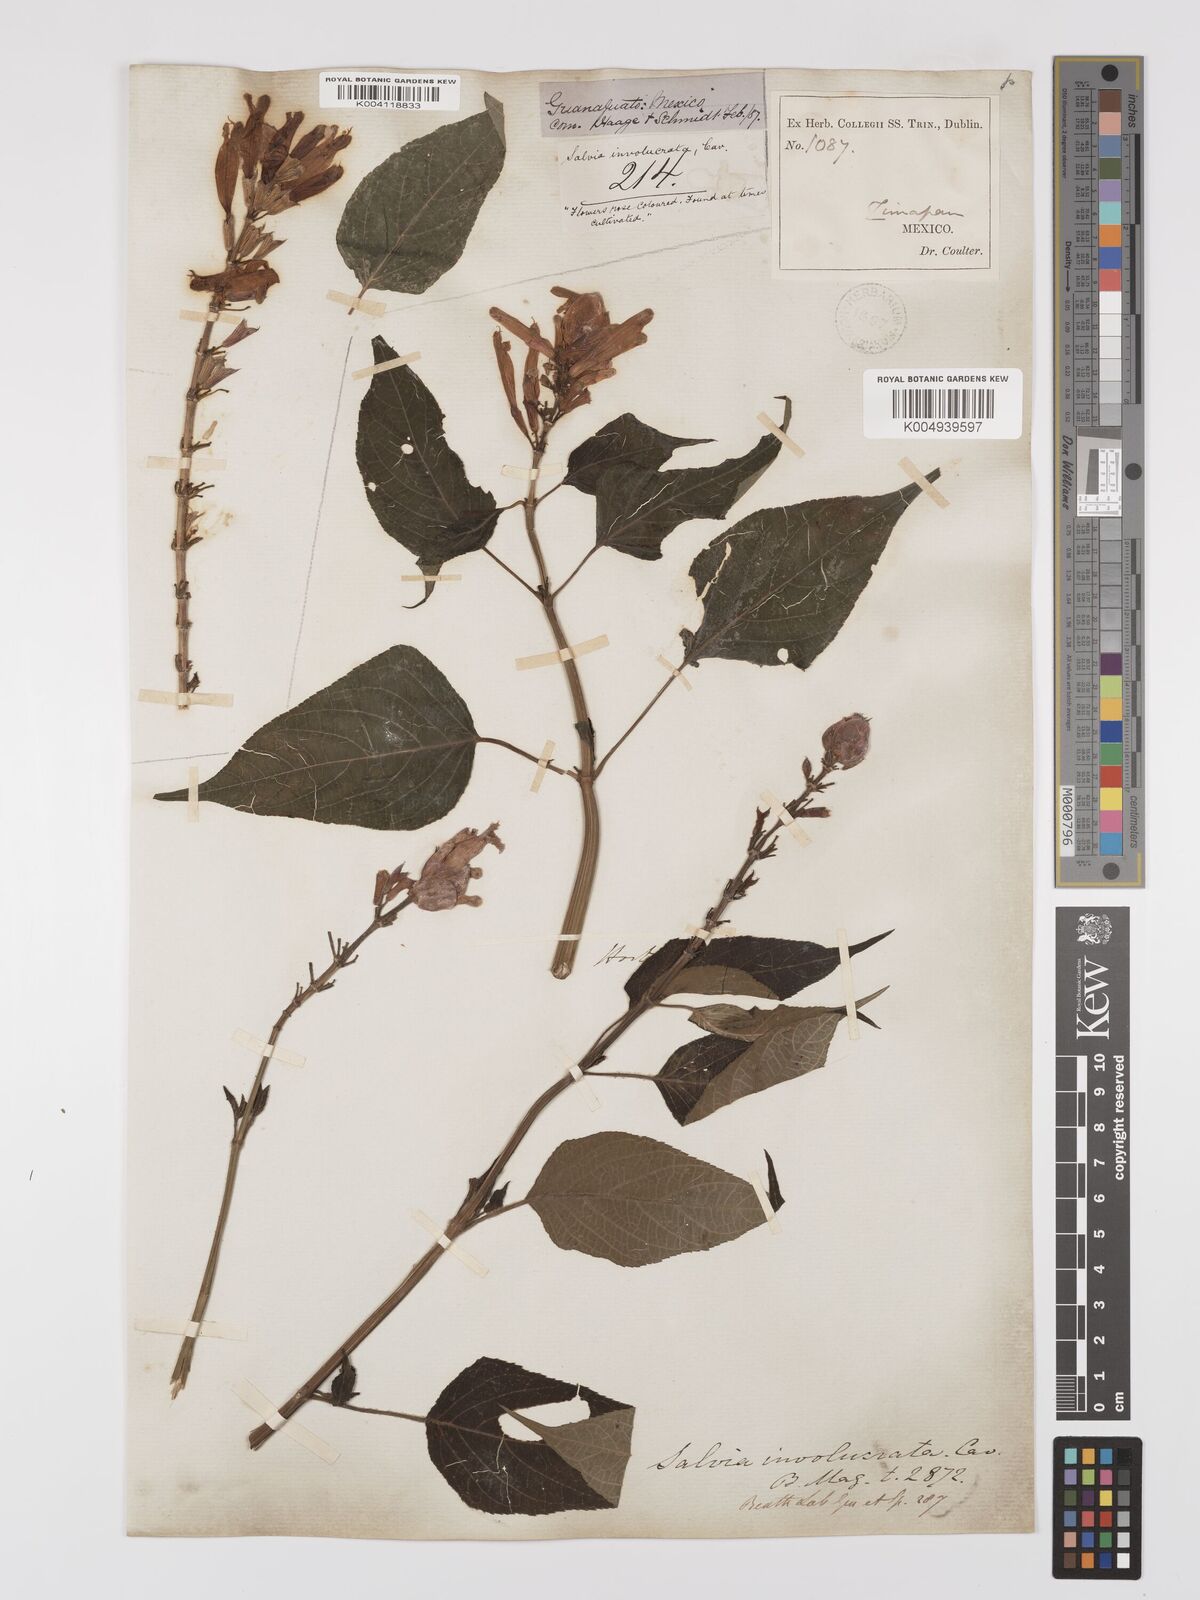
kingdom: Plantae
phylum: Tracheophyta
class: Magnoliopsida
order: Lamiales
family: Lamiaceae
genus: Salvia
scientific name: Salvia involucrata
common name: Roseleaf sage
